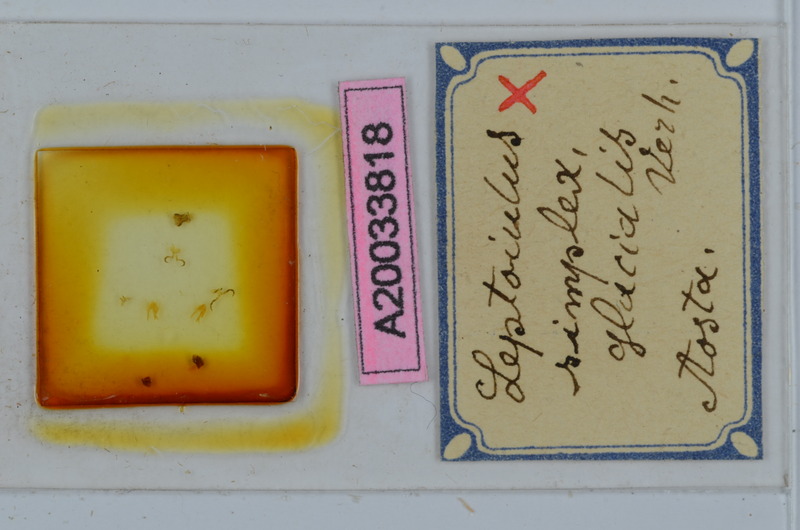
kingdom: Animalia
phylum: Arthropoda
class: Diplopoda
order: Julida
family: Julidae
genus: Leptoiulus
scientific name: Leptoiulus simplex
